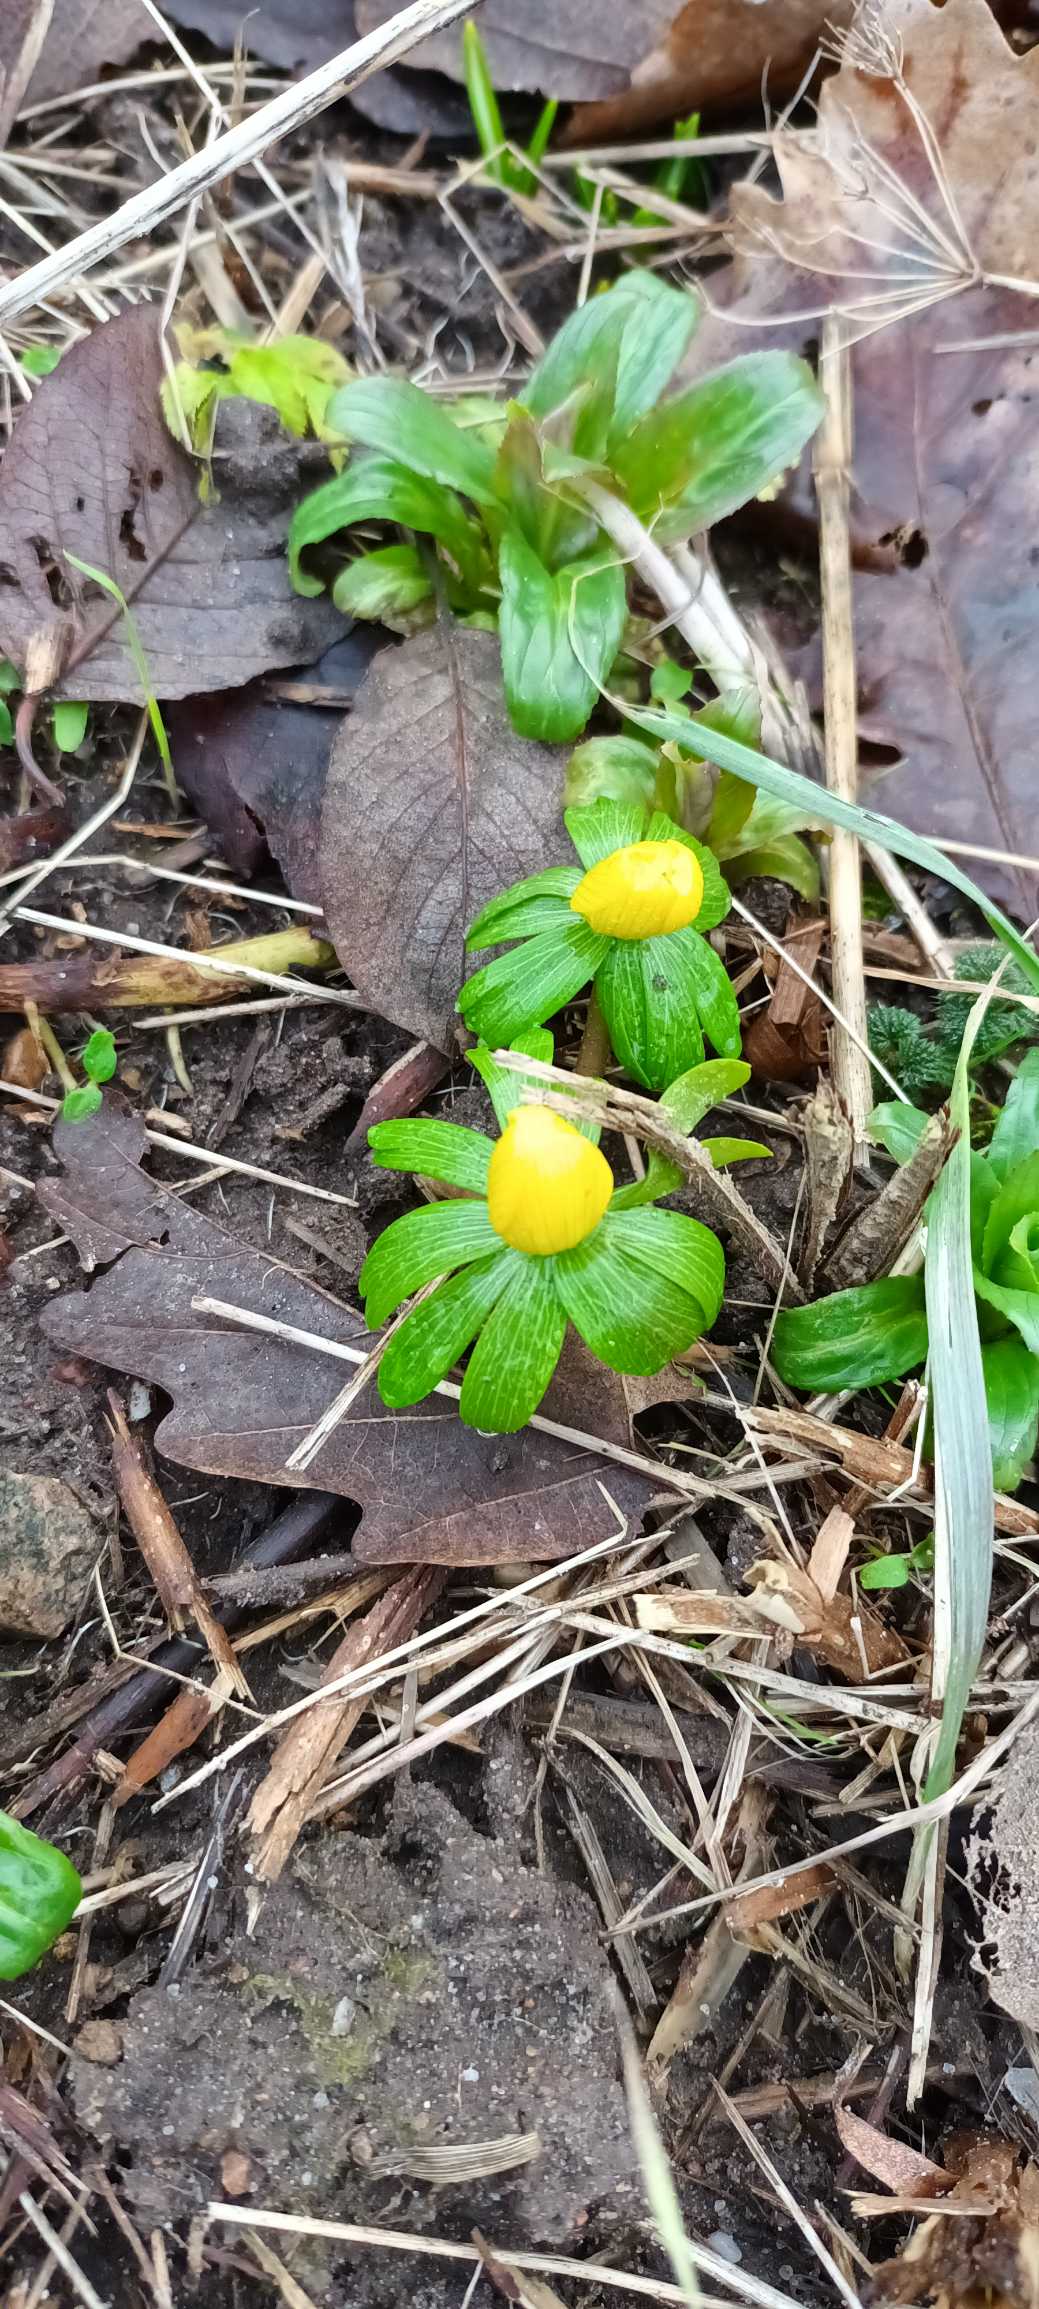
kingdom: Plantae
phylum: Tracheophyta
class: Magnoliopsida
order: Ranunculales
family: Ranunculaceae
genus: Eranthis
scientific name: Eranthis hyemalis
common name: Erantis
